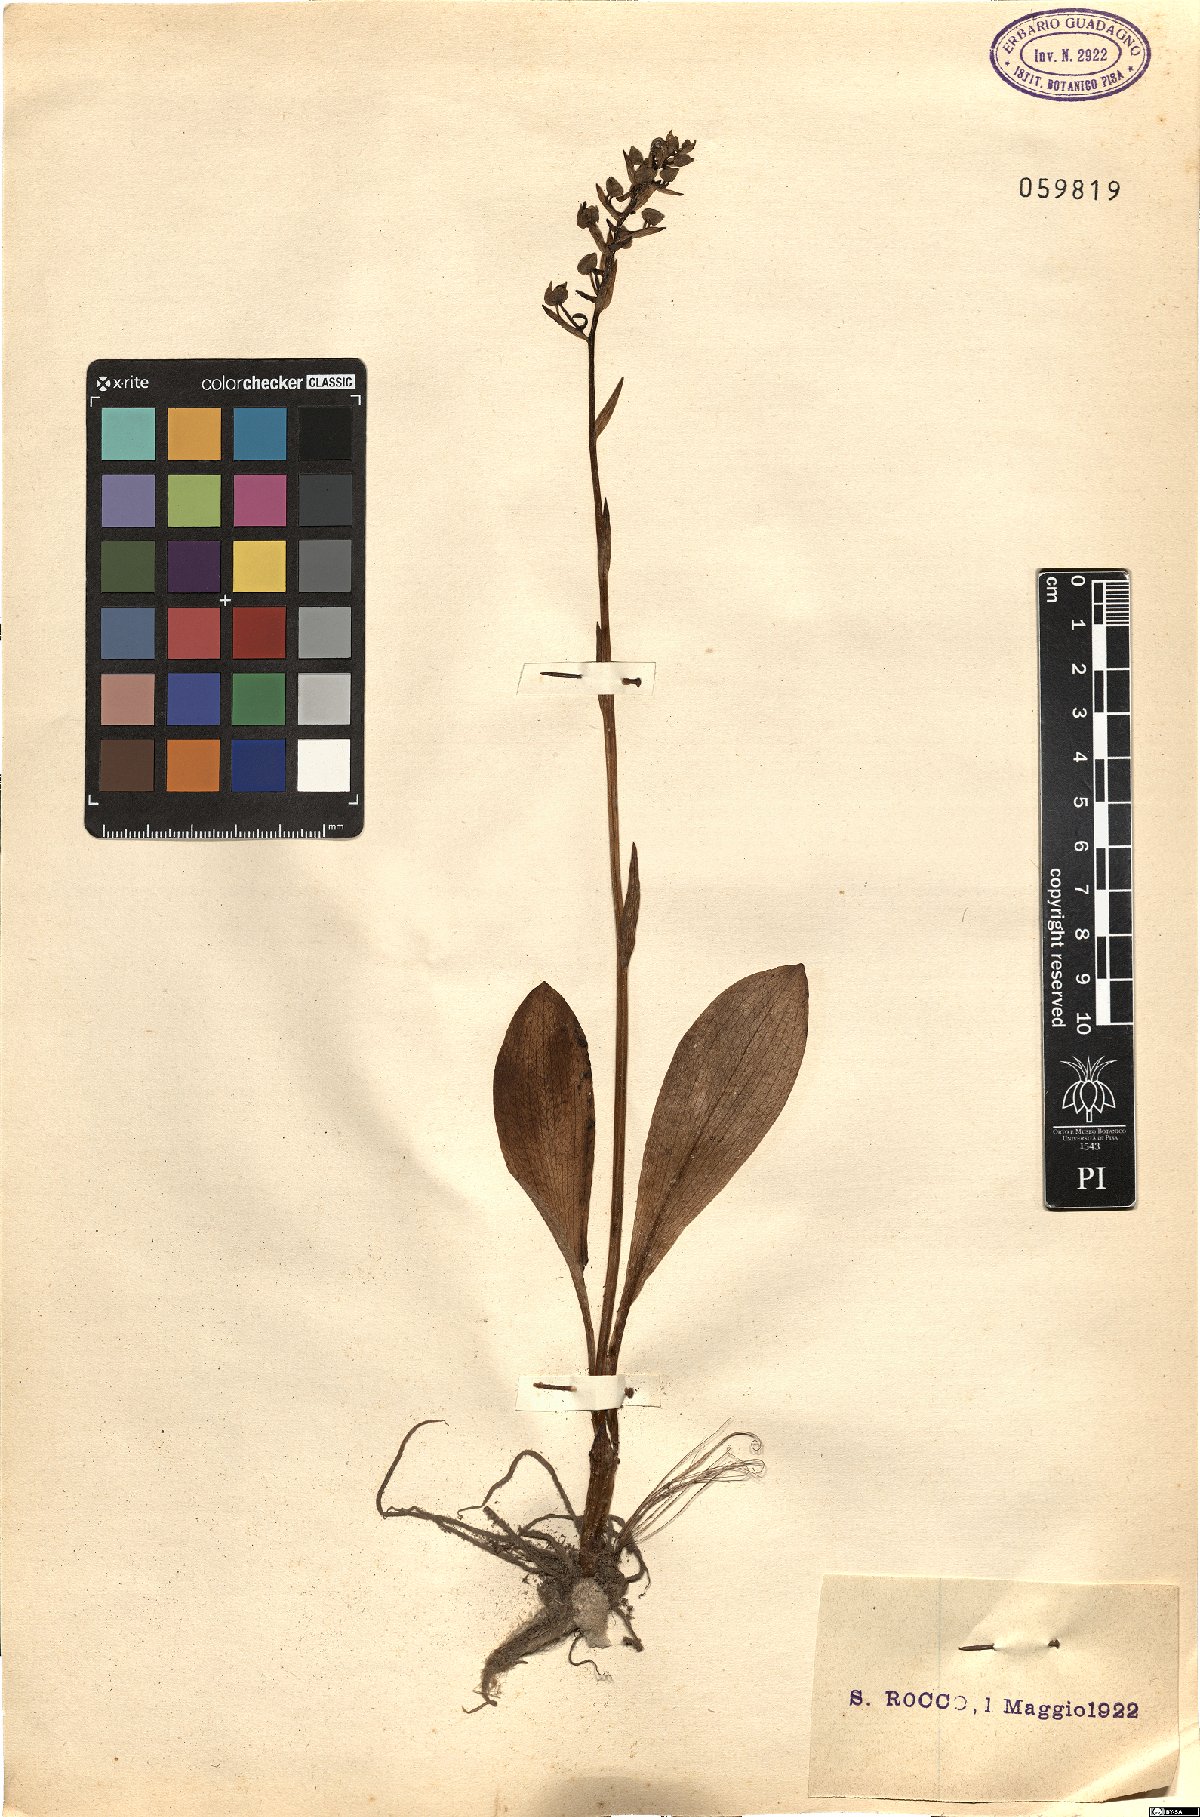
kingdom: Plantae
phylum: Tracheophyta
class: Liliopsida
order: Asparagales
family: Orchidaceae
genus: Orchis
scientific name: Orchis
